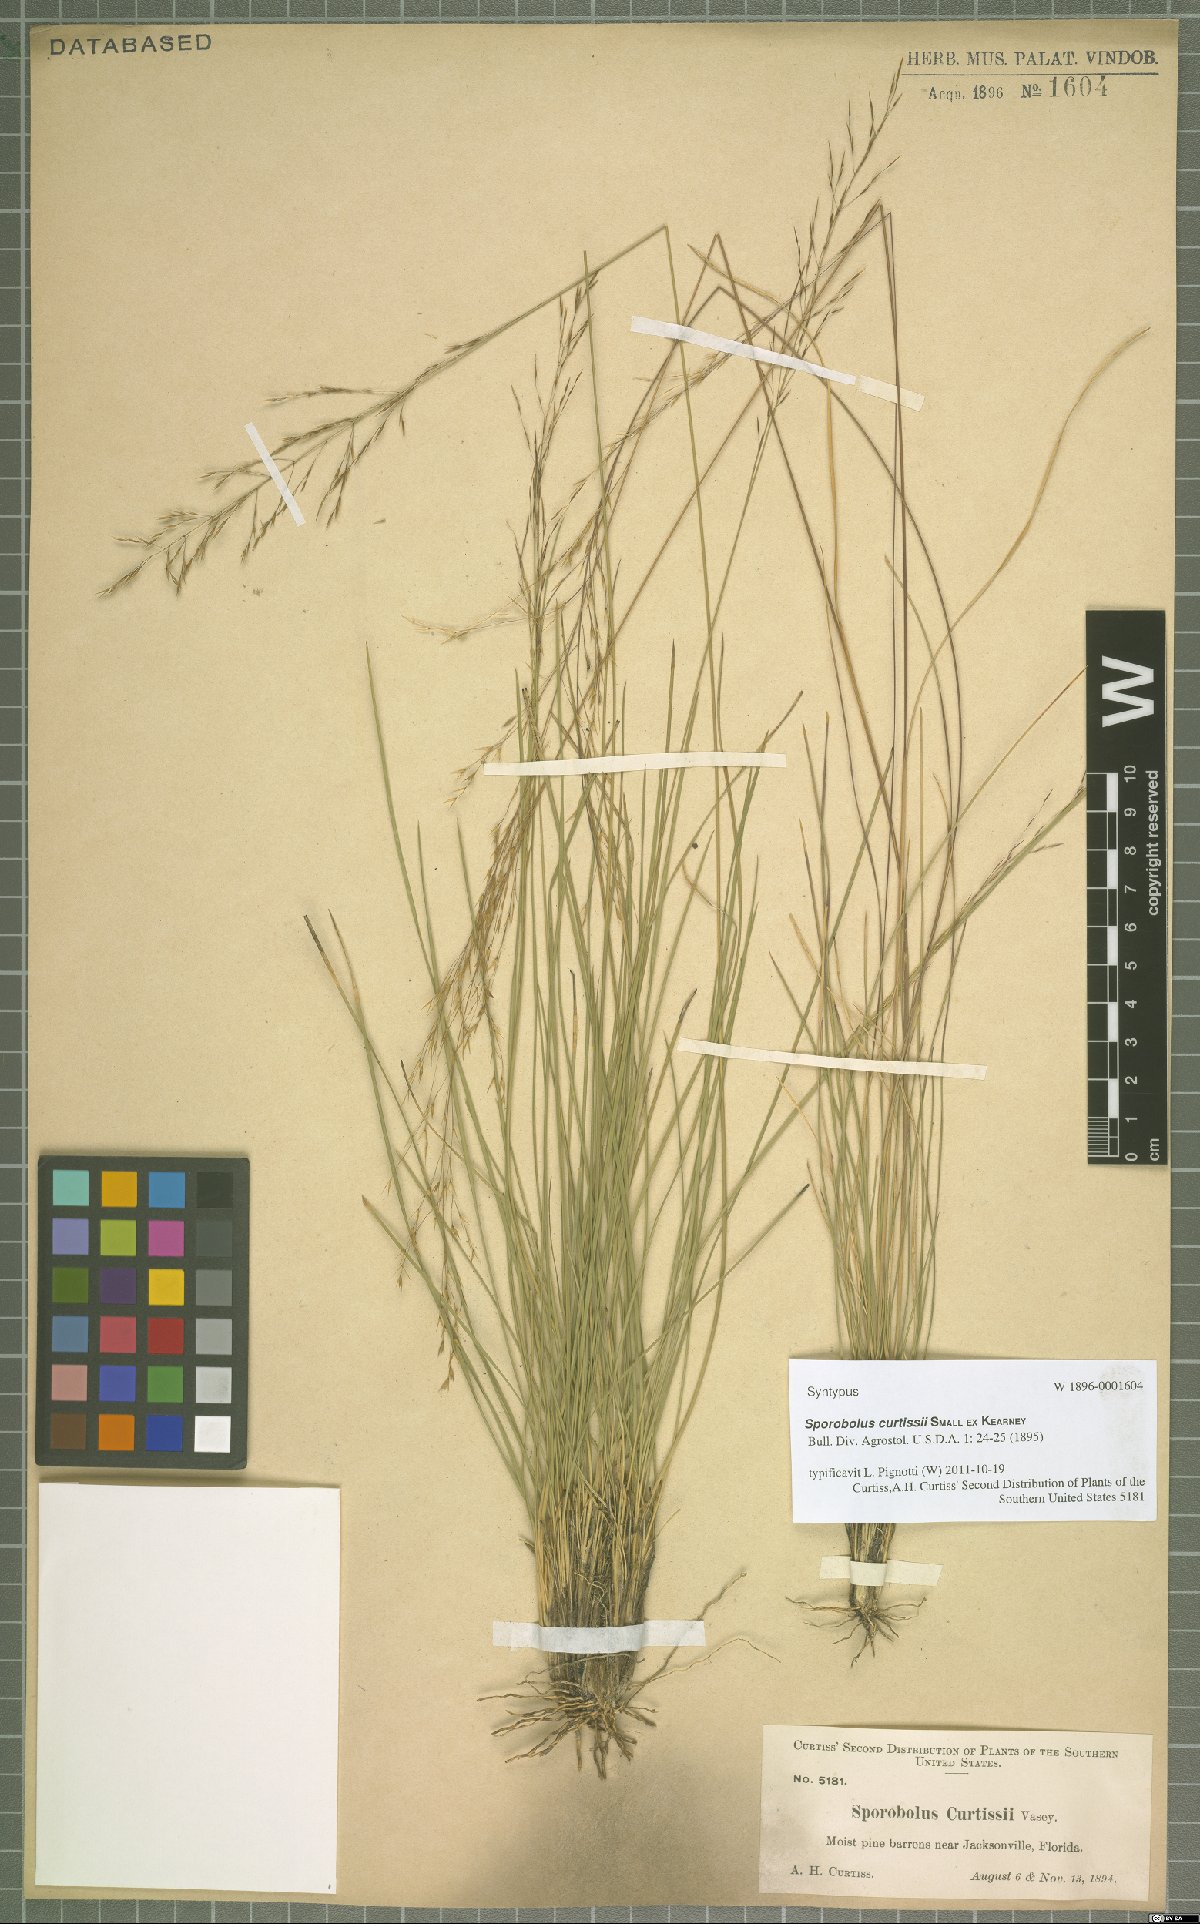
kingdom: Plantae
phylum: Tracheophyta
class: Liliopsida
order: Poales
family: Poaceae
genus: Sporobolus
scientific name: Sporobolus curtissii
